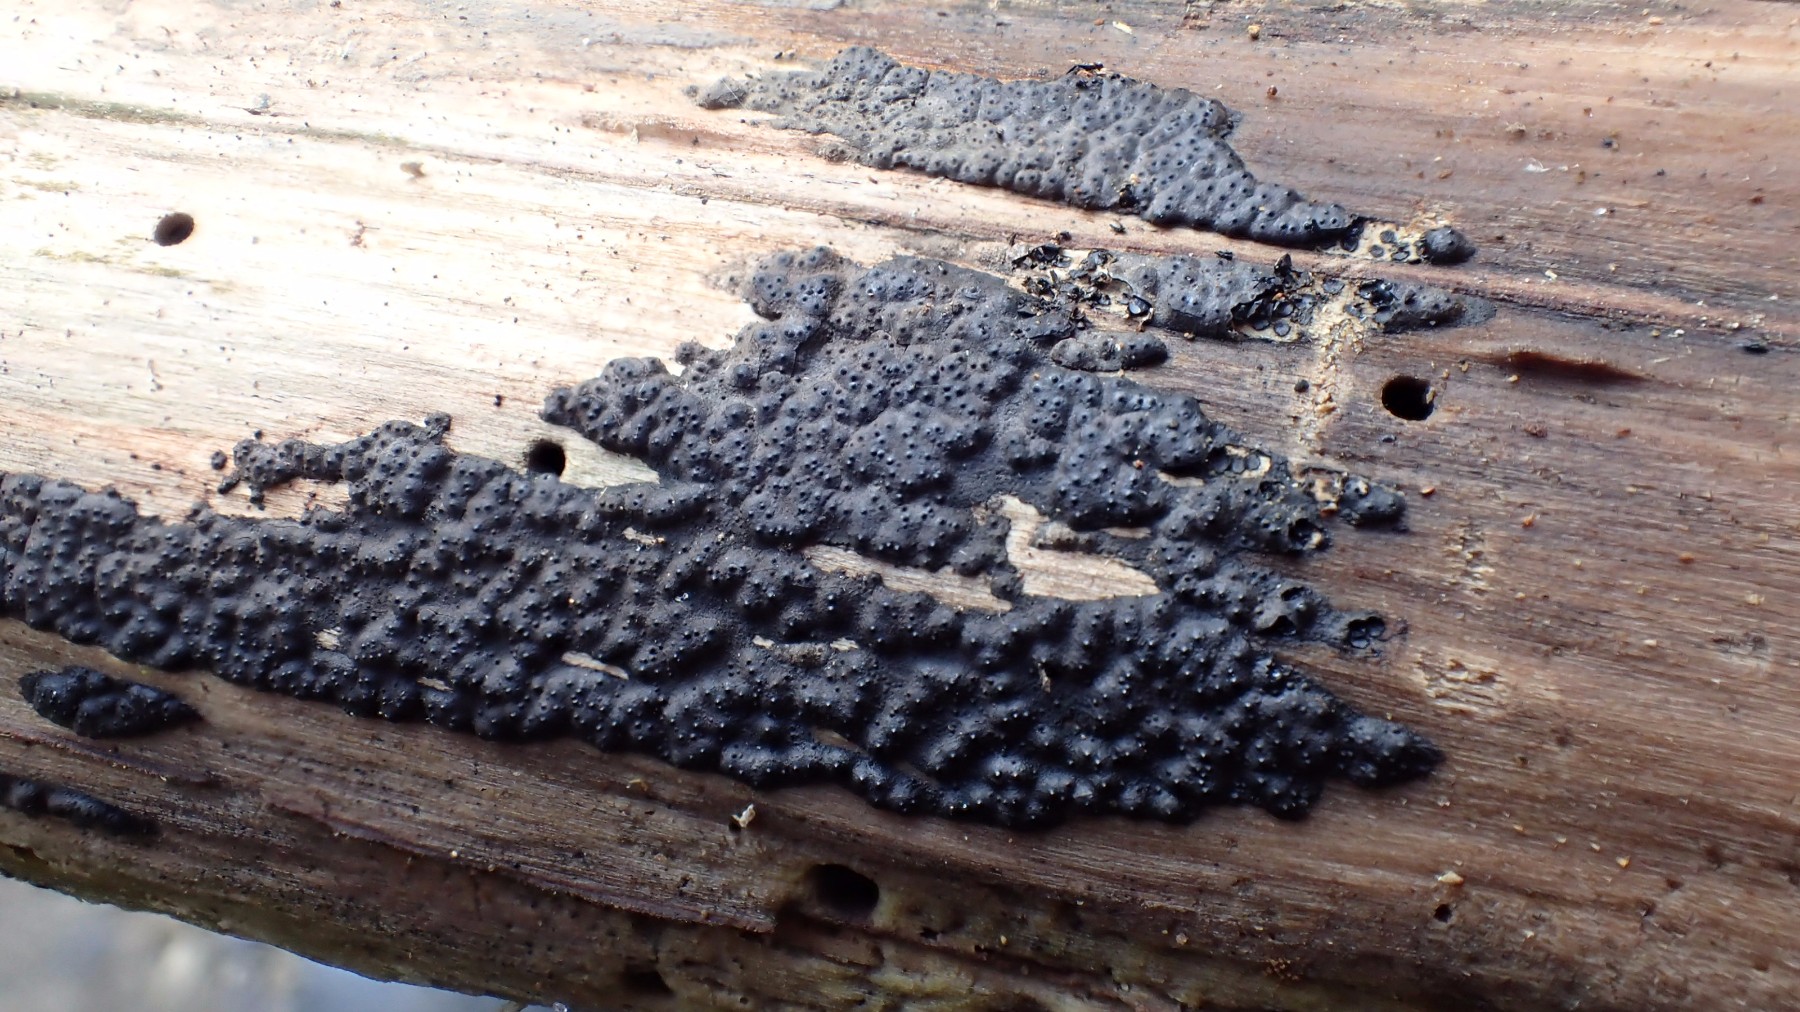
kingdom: Fungi
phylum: Ascomycota
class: Sordariomycetes
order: Xylariales
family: Xylariaceae
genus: Nemania
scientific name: Nemania
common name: kuldyne
